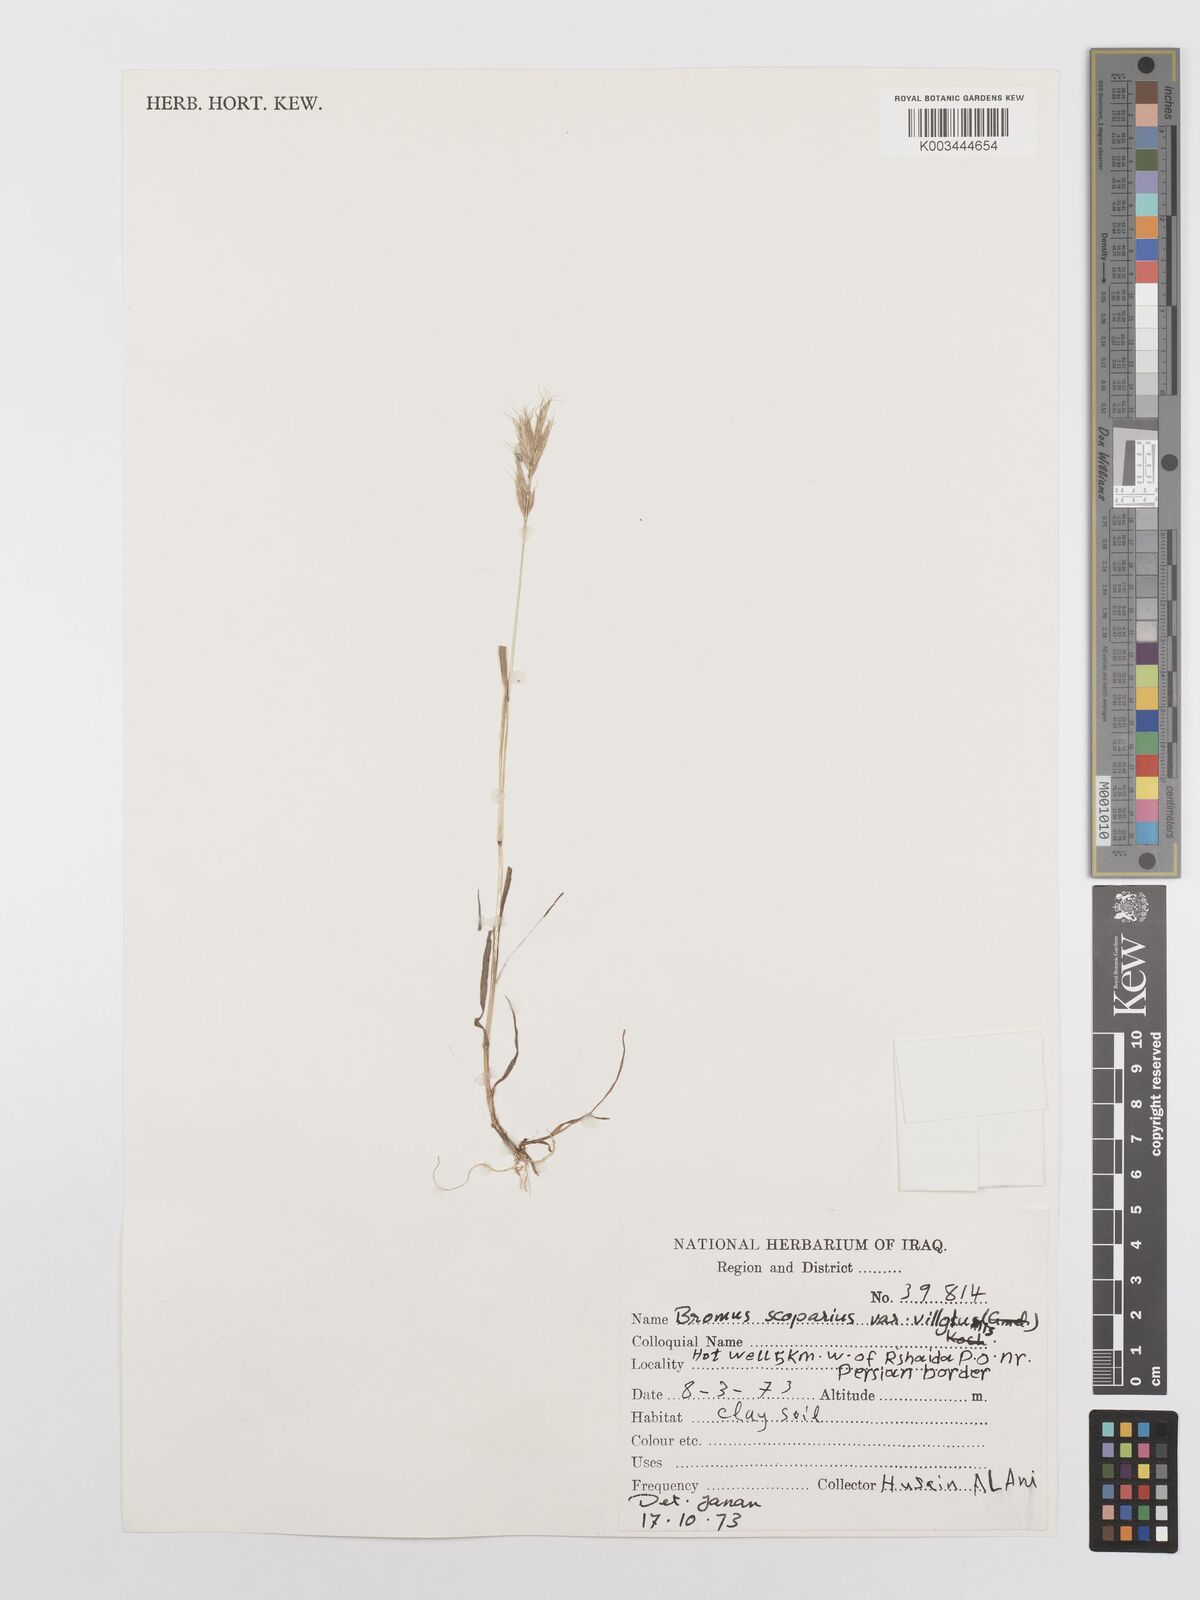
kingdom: Plantae
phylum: Tracheophyta
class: Liliopsida
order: Poales
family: Poaceae
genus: Bromus
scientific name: Bromus scoparius
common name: Broom brome
